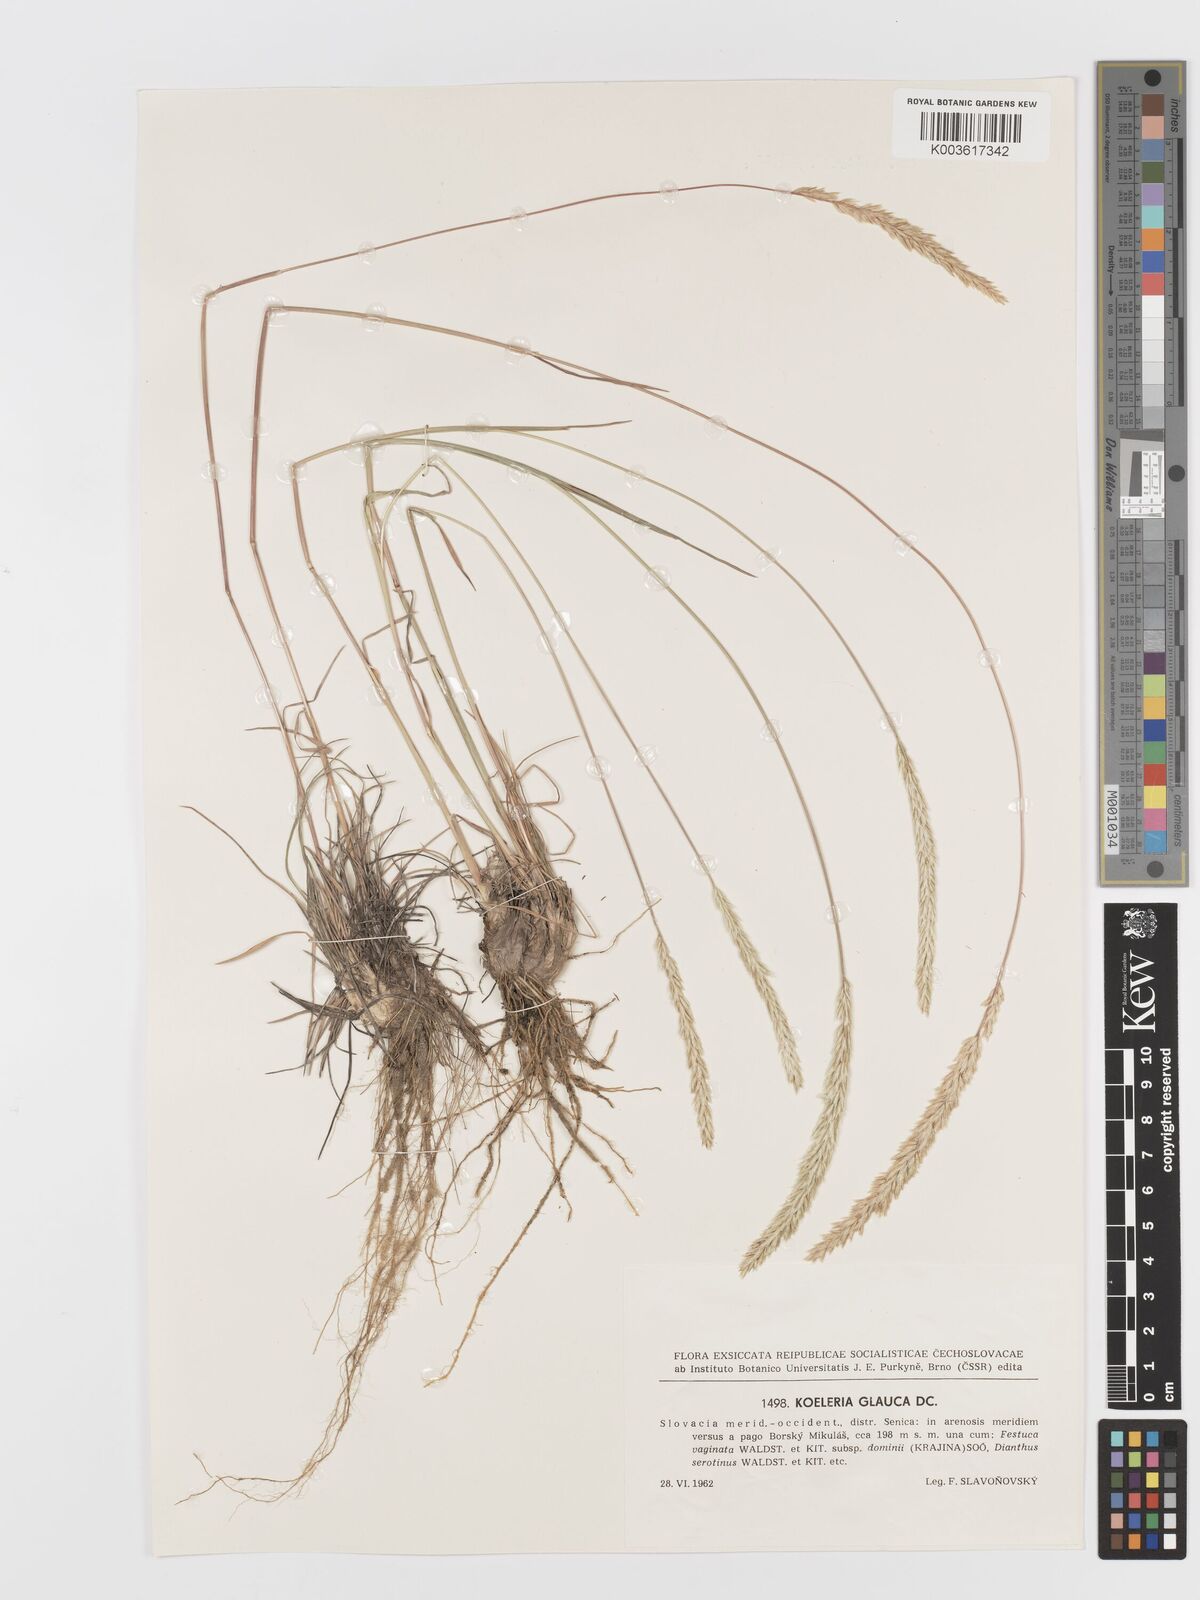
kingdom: Plantae
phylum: Tracheophyta
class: Liliopsida
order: Poales
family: Poaceae
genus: Koeleria
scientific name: Koeleria glauca
